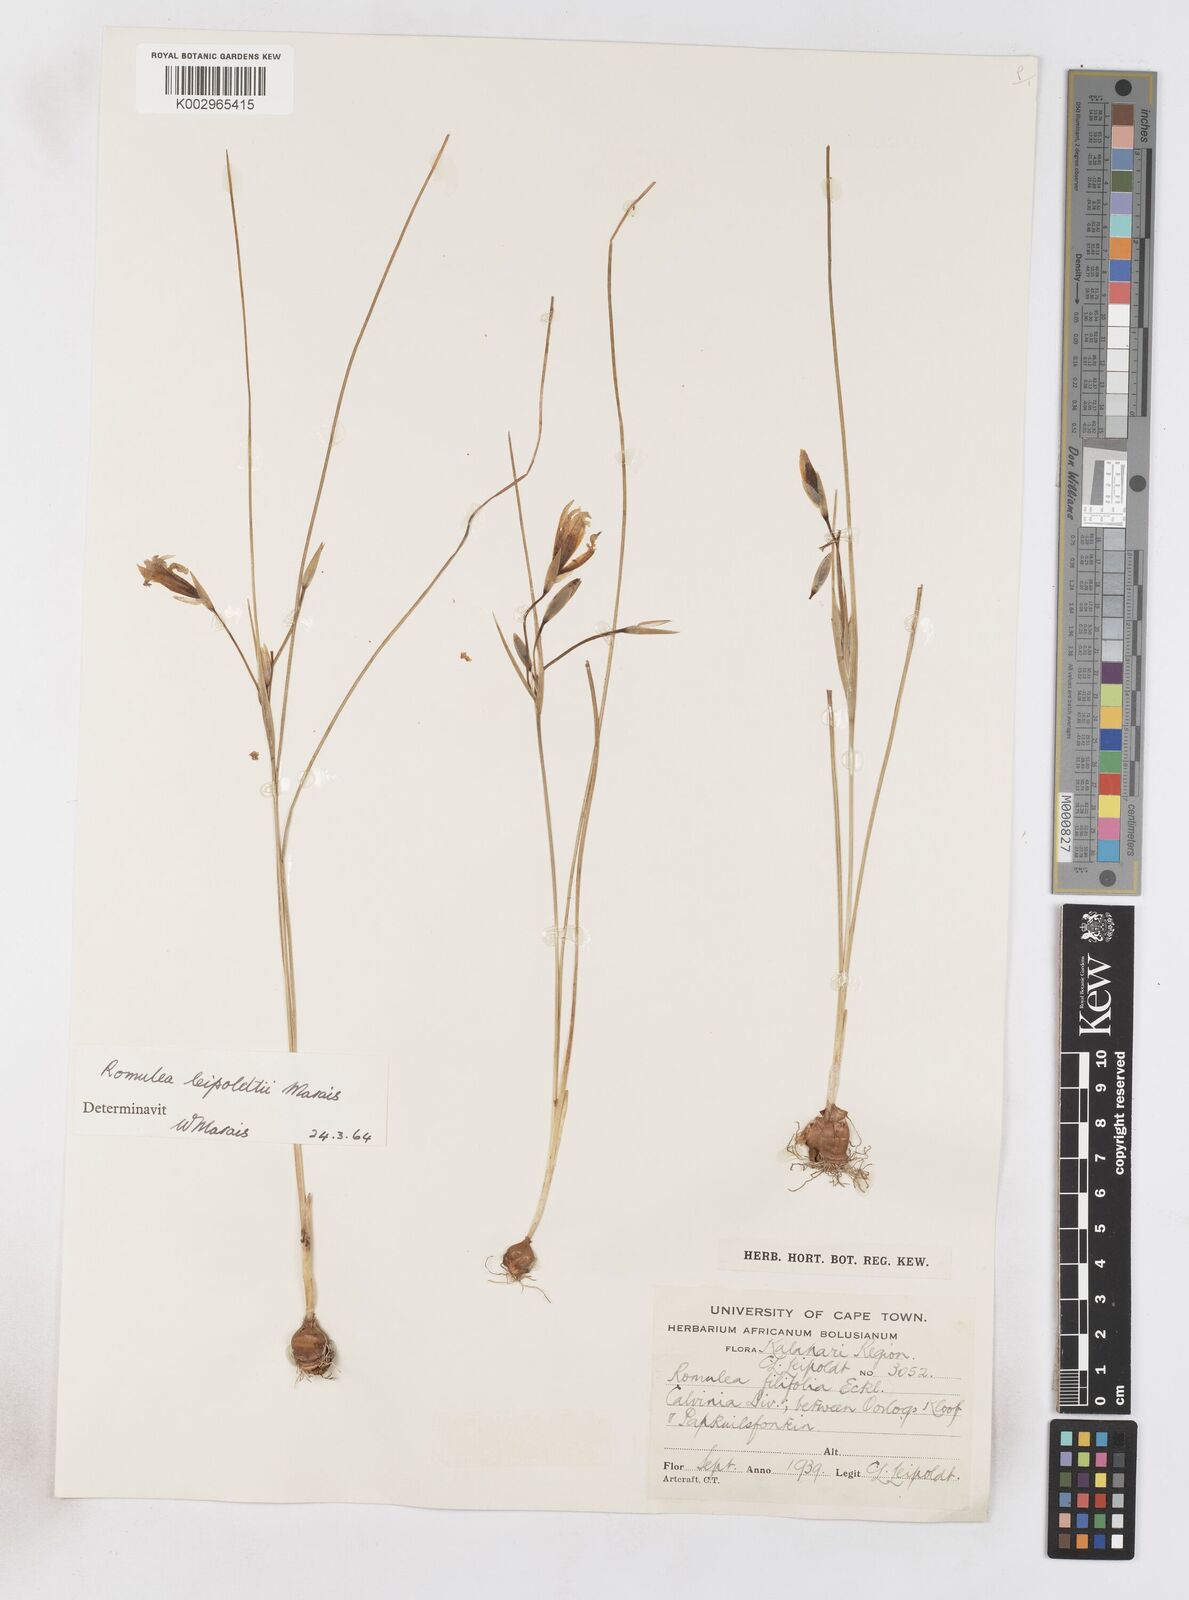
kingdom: Plantae
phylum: Tracheophyta
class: Liliopsida
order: Asparagales
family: Iridaceae
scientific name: Iridaceae
